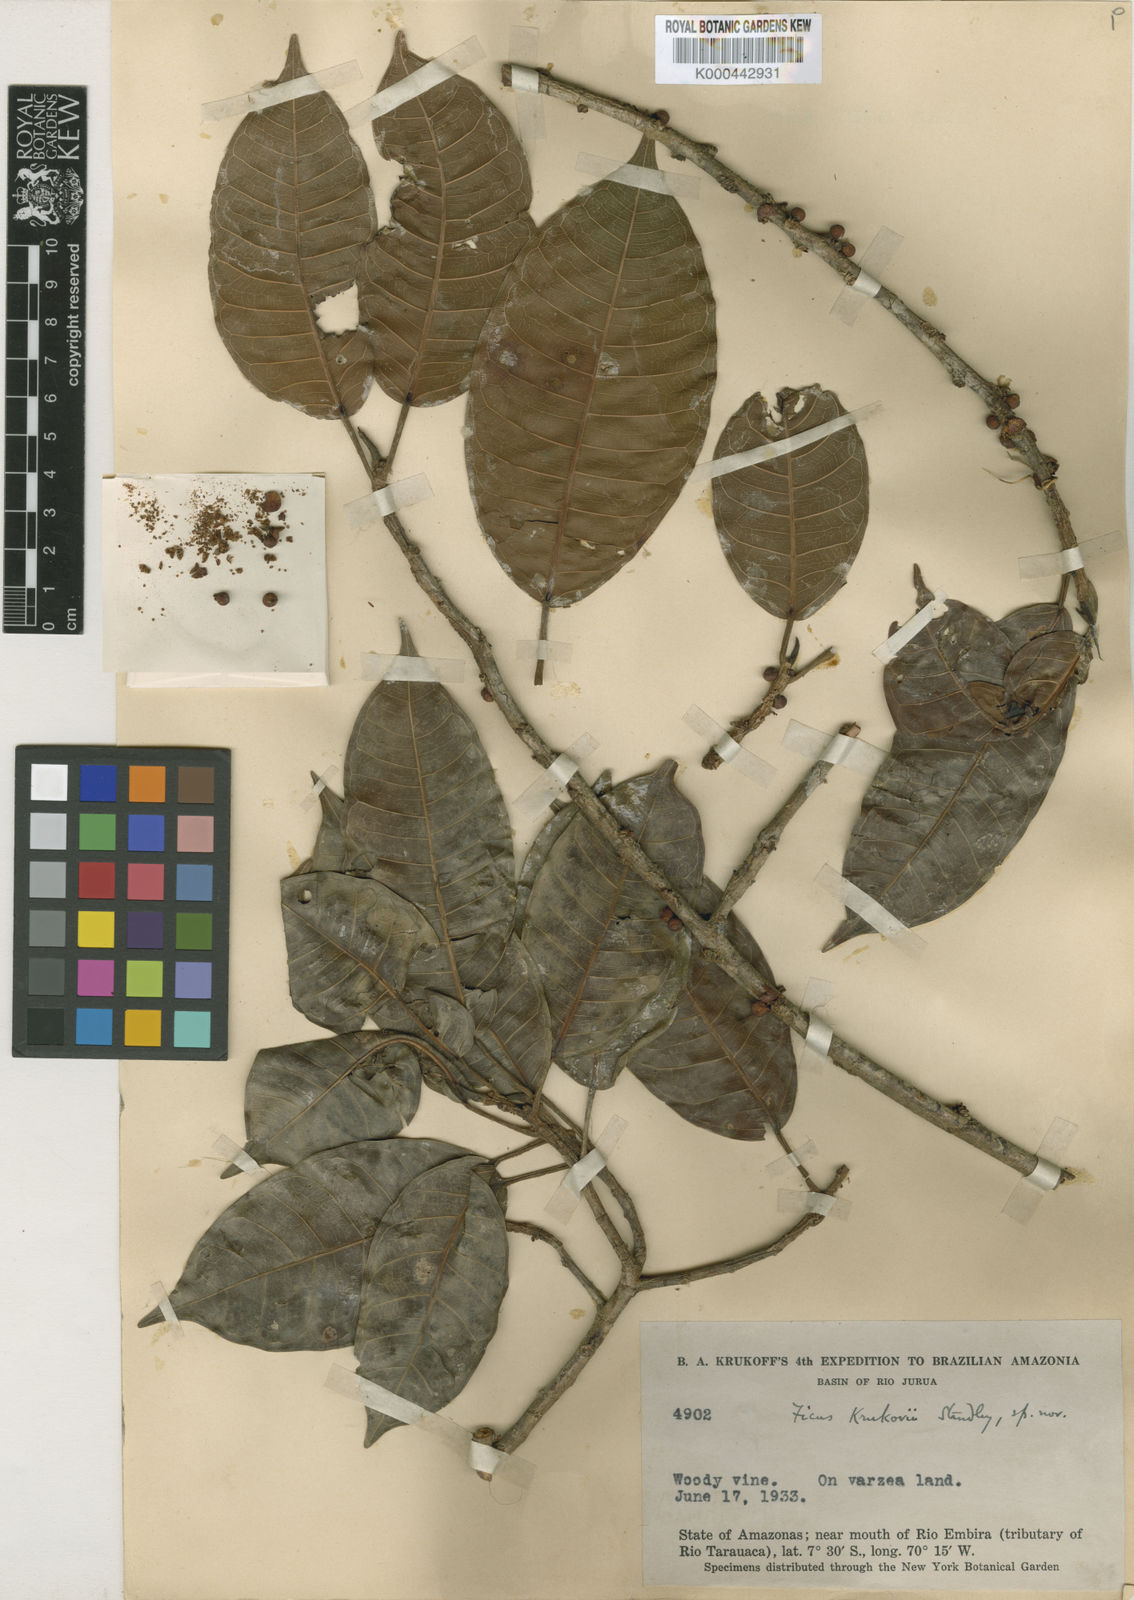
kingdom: Plantae
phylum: Tracheophyta
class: Magnoliopsida
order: Rosales
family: Moraceae
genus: Ficus
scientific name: Ficus krukovii
